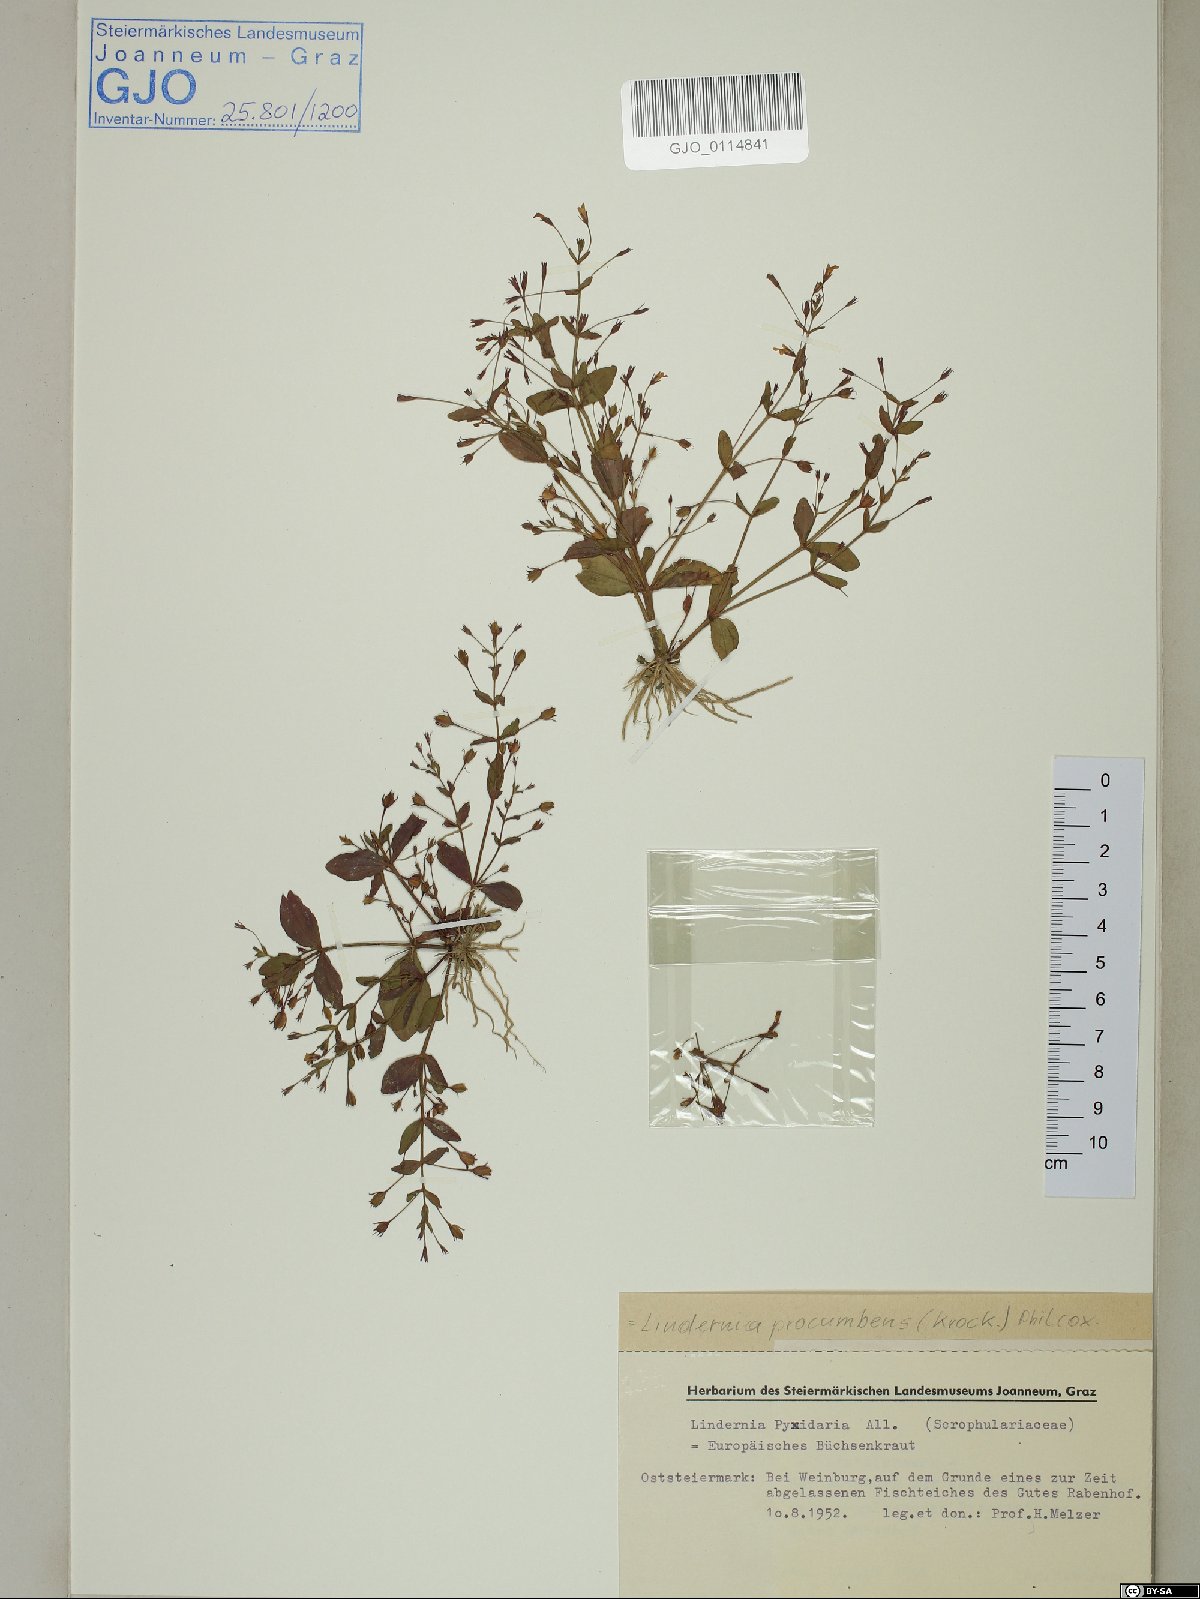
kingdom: Plantae
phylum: Tracheophyta
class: Magnoliopsida
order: Lamiales
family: Linderniaceae
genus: Lindernia
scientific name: Lindernia dubia
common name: Annual false pimpernel
